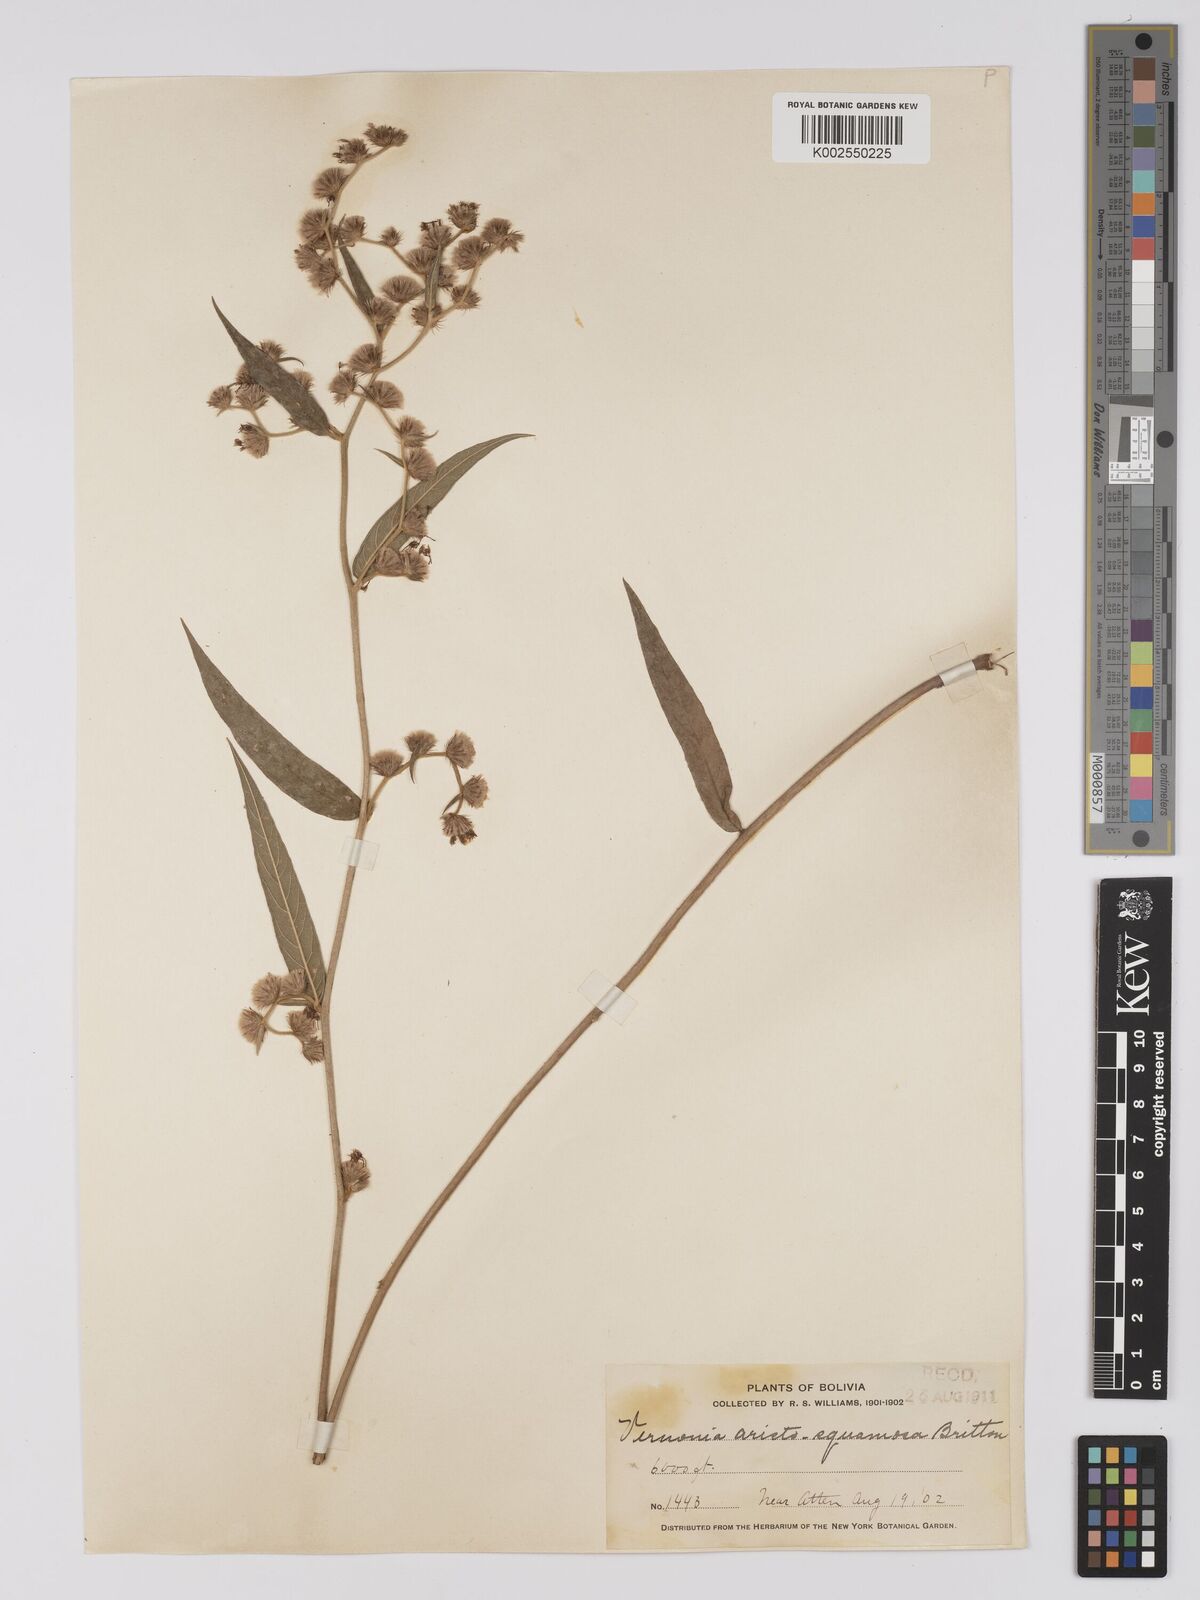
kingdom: Plantae
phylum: Tracheophyta
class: Magnoliopsida
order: Asterales
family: Asteraceae
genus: Lepidaploa
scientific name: Lepidaploa aristosquamosa
